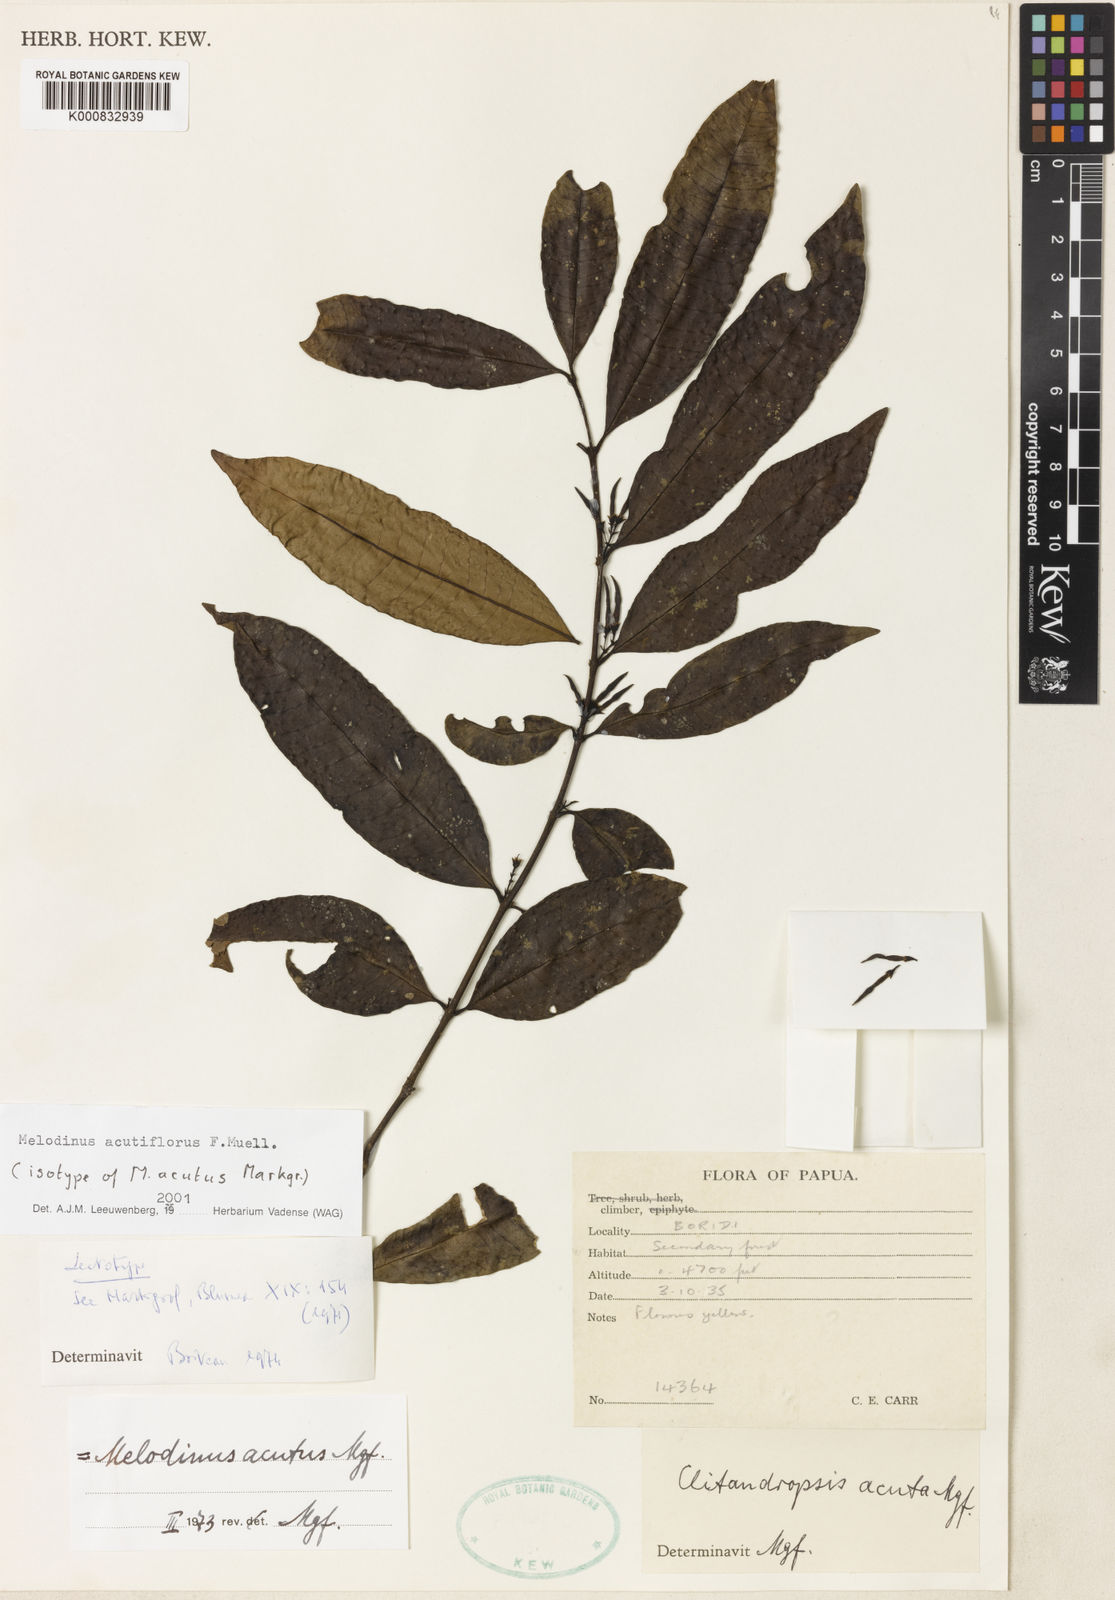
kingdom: Plantae
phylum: Tracheophyta
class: Magnoliopsida
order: Gentianales
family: Apocynaceae
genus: Melodinus
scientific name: Melodinus acutiflorus
